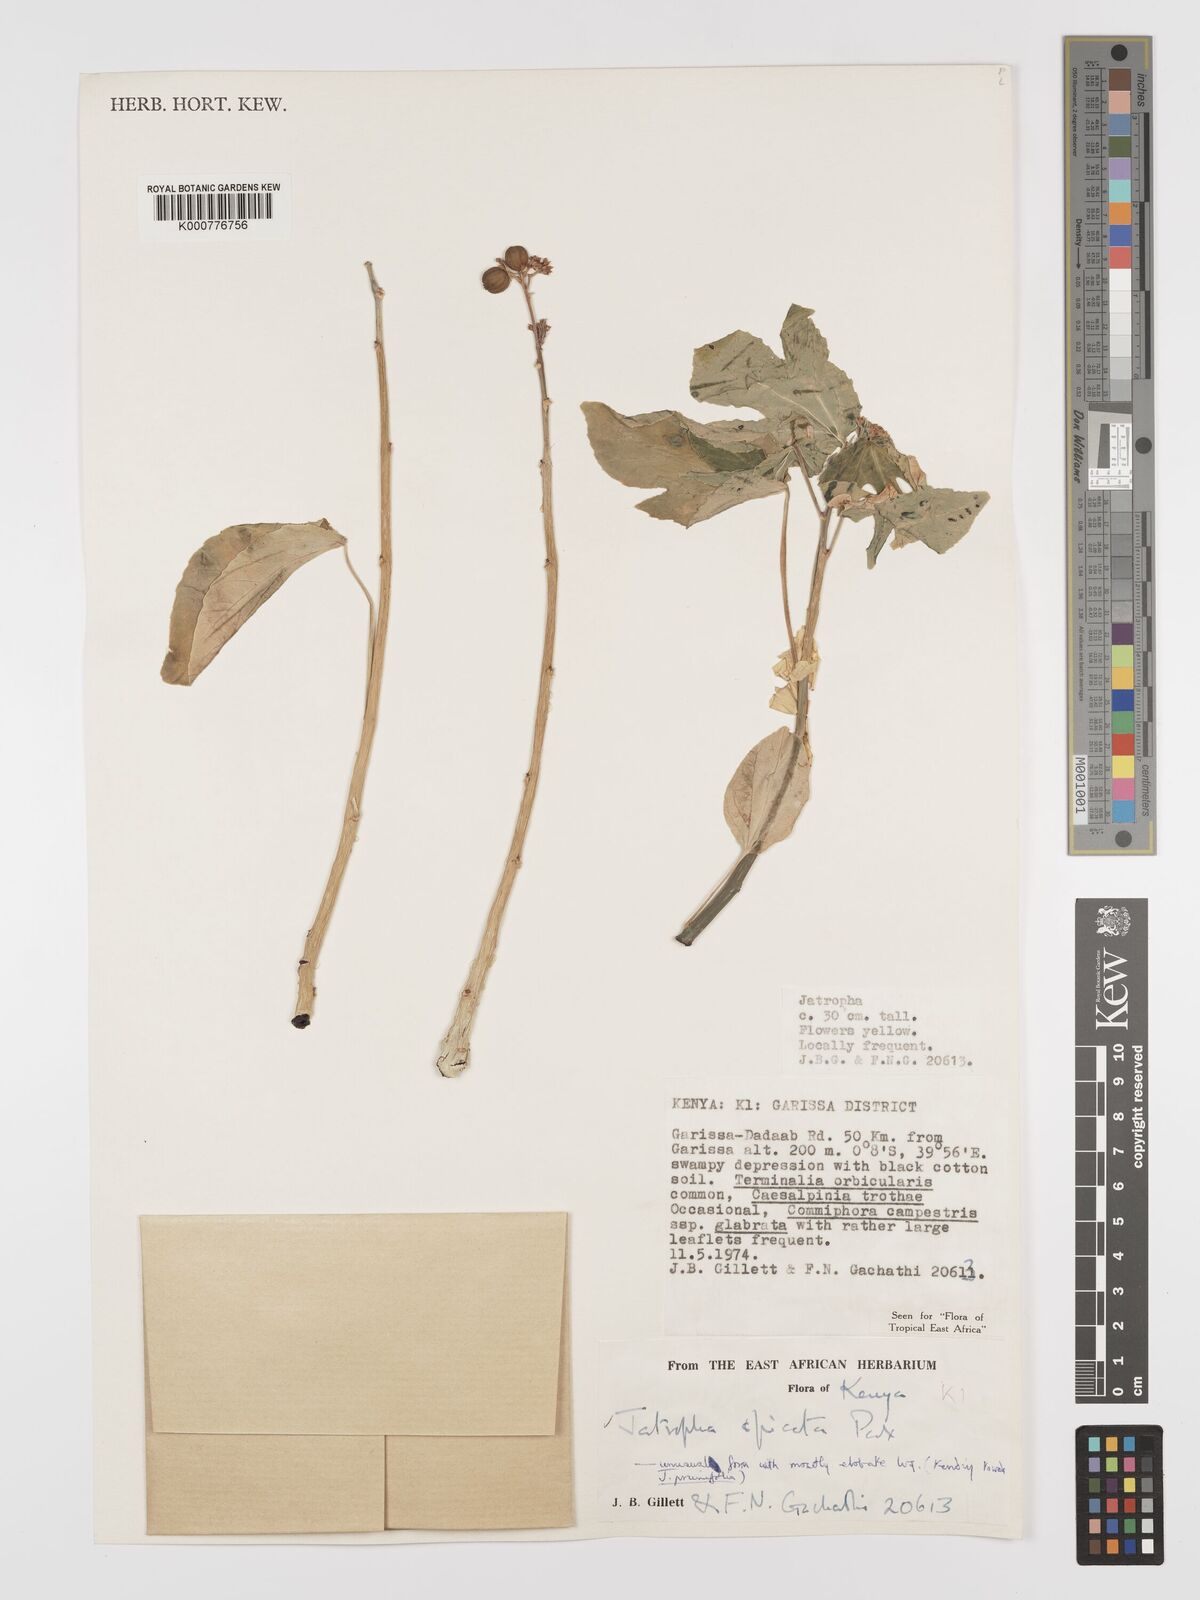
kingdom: Plantae
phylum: Tracheophyta
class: Magnoliopsida
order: Malpighiales
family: Euphorbiaceae
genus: Jatropha
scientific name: Jatropha spicata
